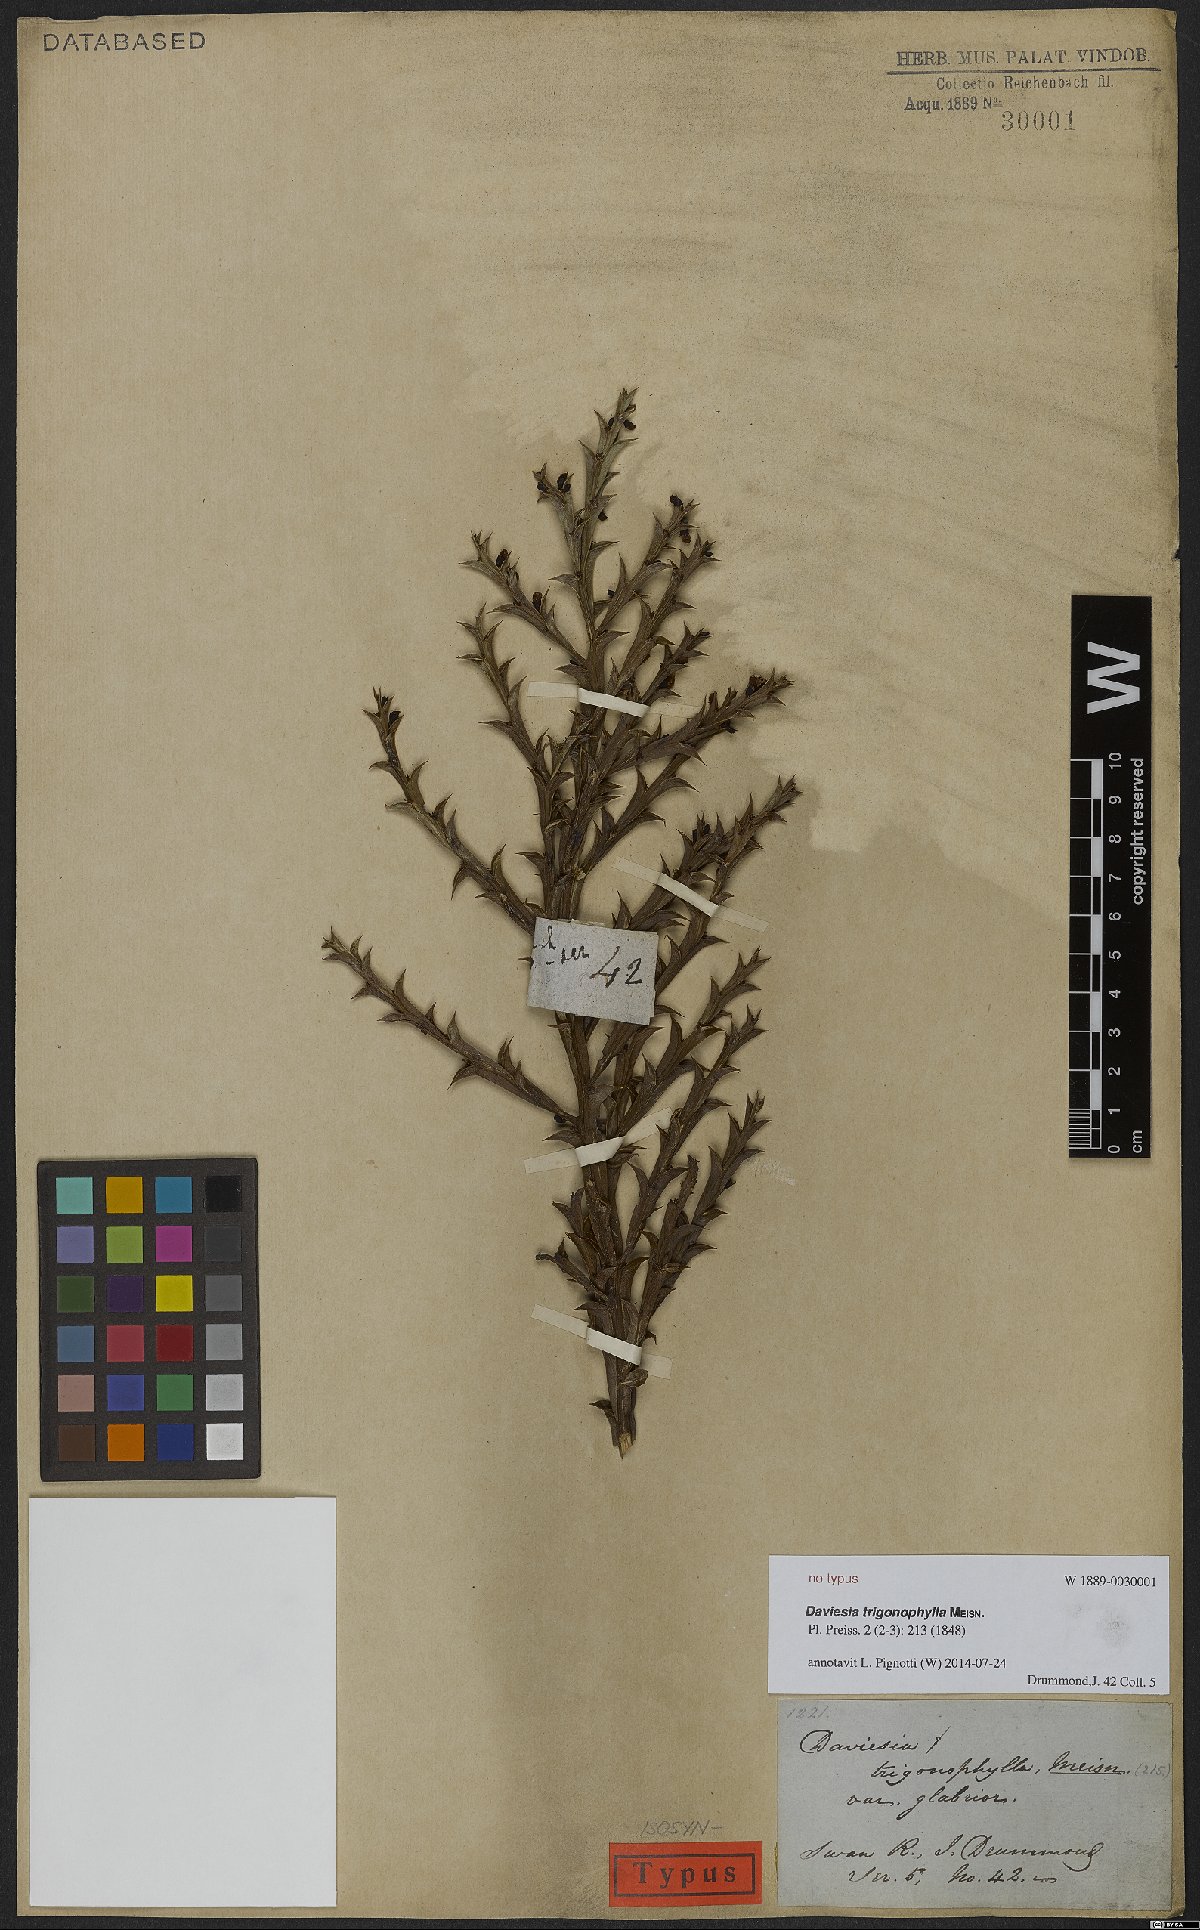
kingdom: Plantae
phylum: Tracheophyta
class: Magnoliopsida
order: Fabales
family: Fabaceae
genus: Daviesia
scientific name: Daviesia trigonophylla
